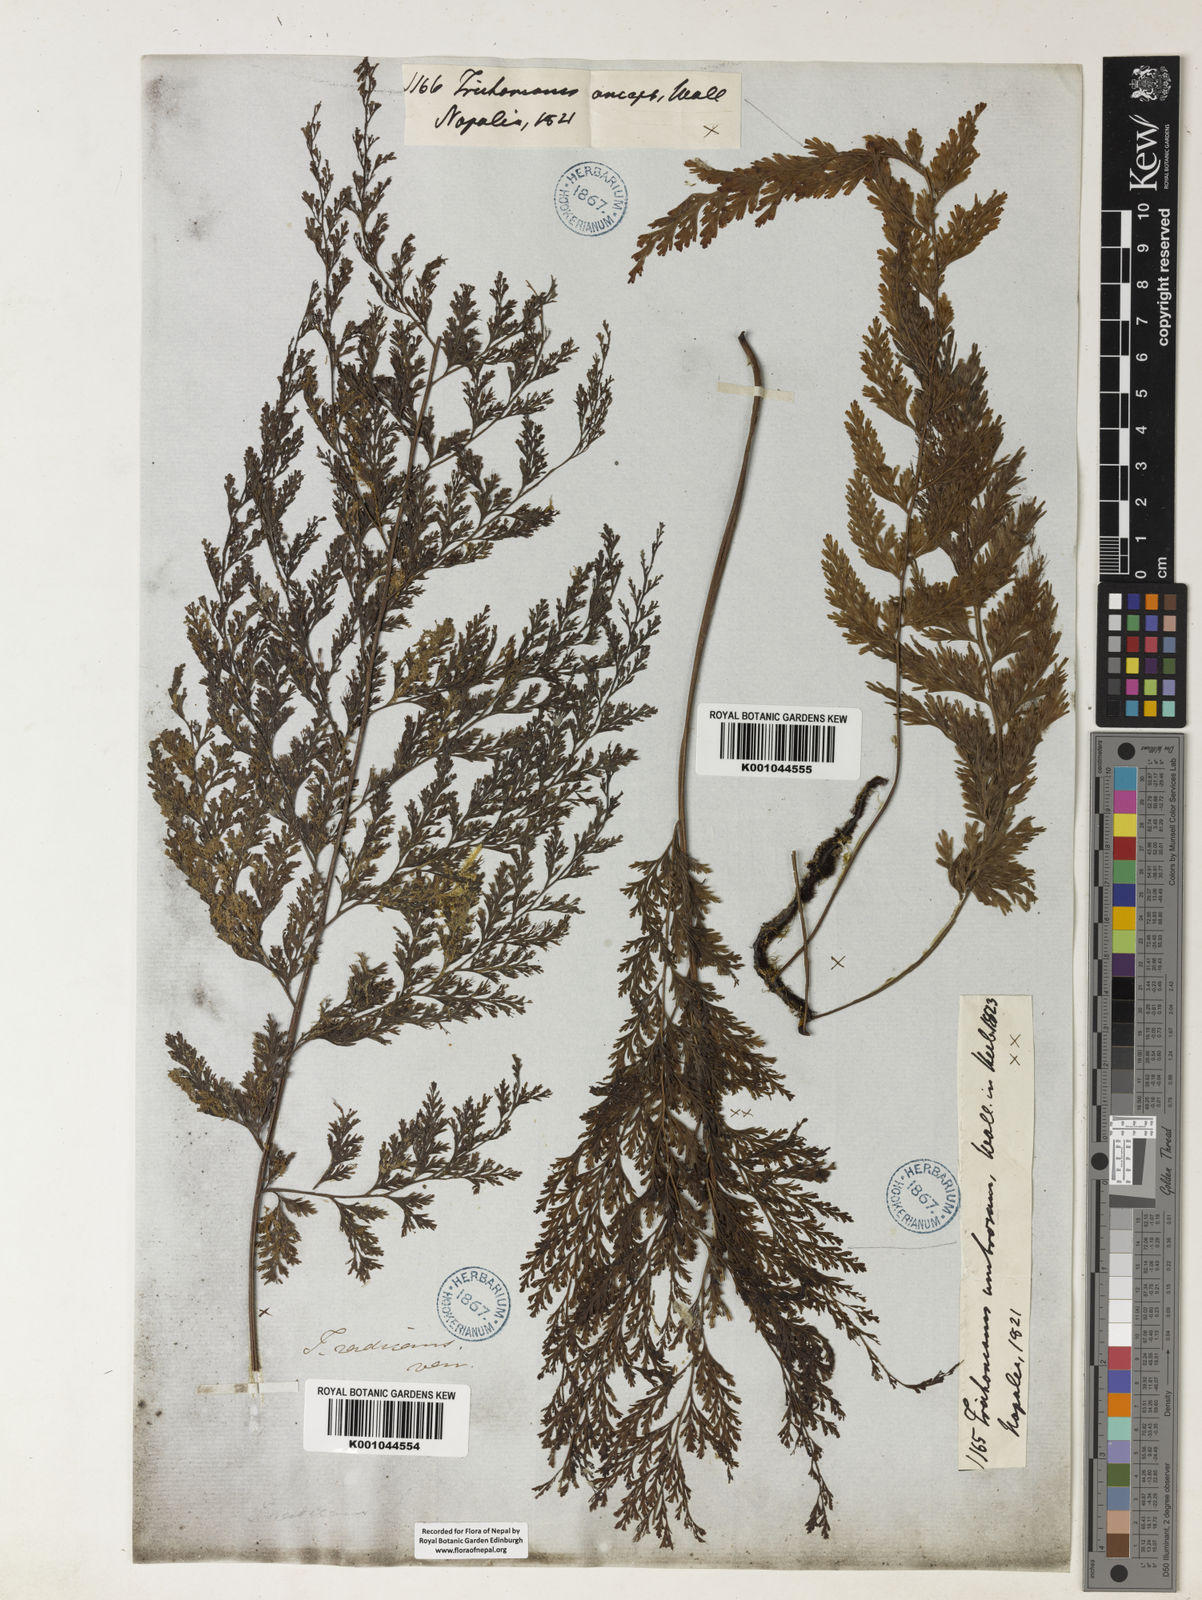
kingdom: Plantae
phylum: Tracheophyta
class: Polypodiopsida
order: Hymenophyllales
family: Hymenophyllaceae
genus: Vandenboschia
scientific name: Vandenboschia radicans
